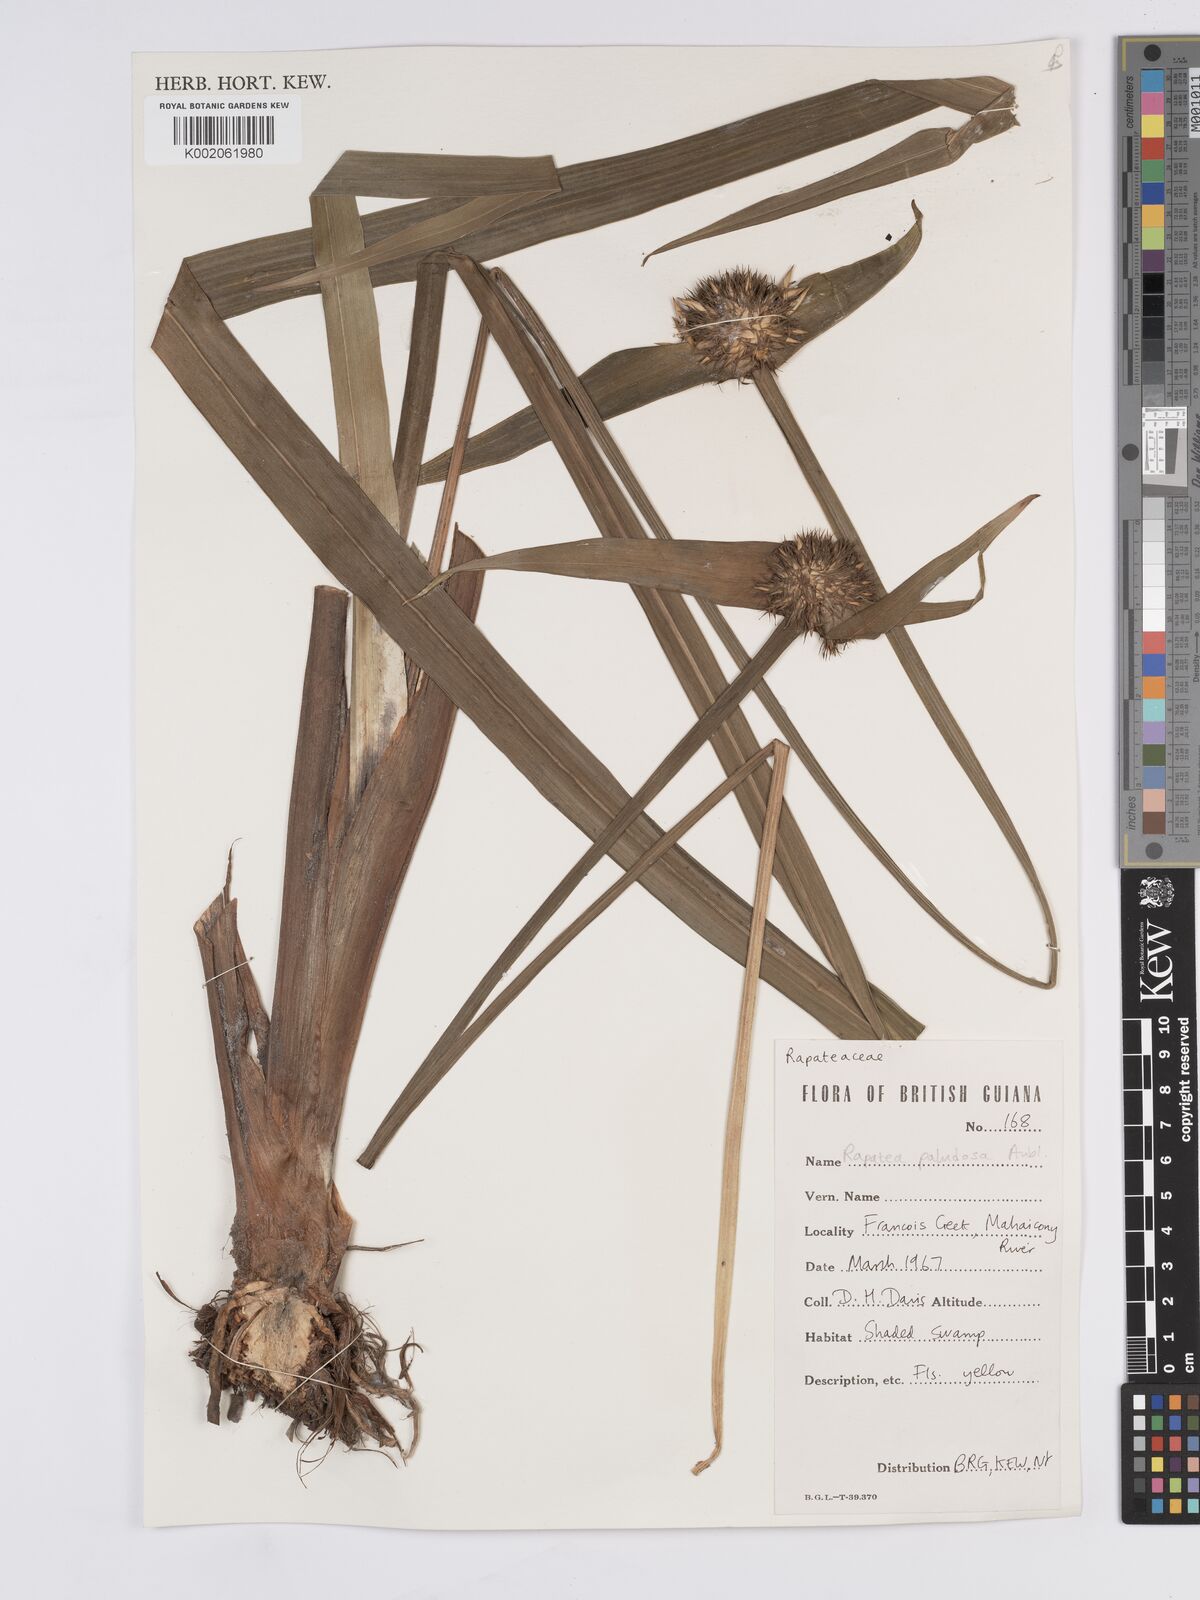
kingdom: Plantae
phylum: Tracheophyta
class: Liliopsida
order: Poales
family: Rapateaceae
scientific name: Rapateaceae
